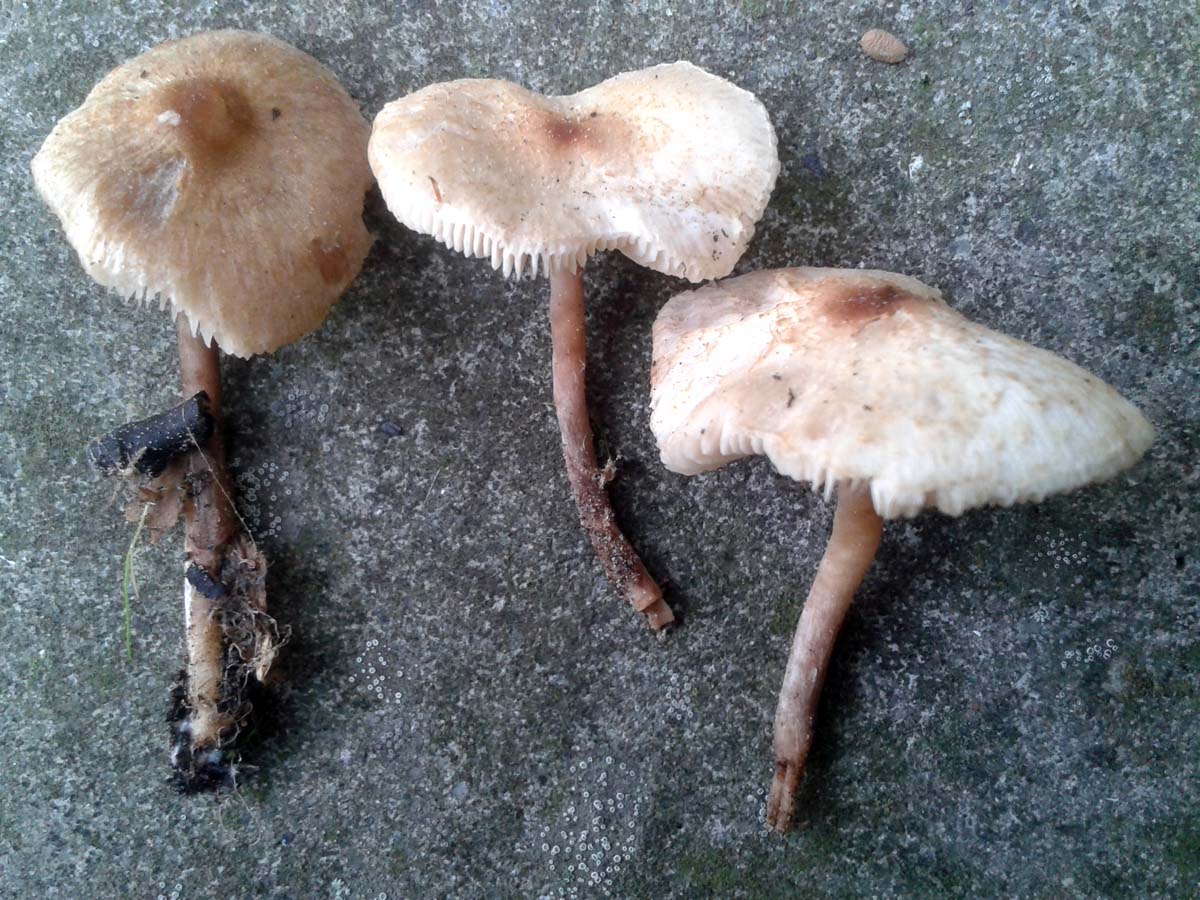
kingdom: Fungi
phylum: Basidiomycota
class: Agaricomycetes
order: Agaricales
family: Agaricaceae
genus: Lepiota
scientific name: Lepiota cristata
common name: stinkende parasolhat
